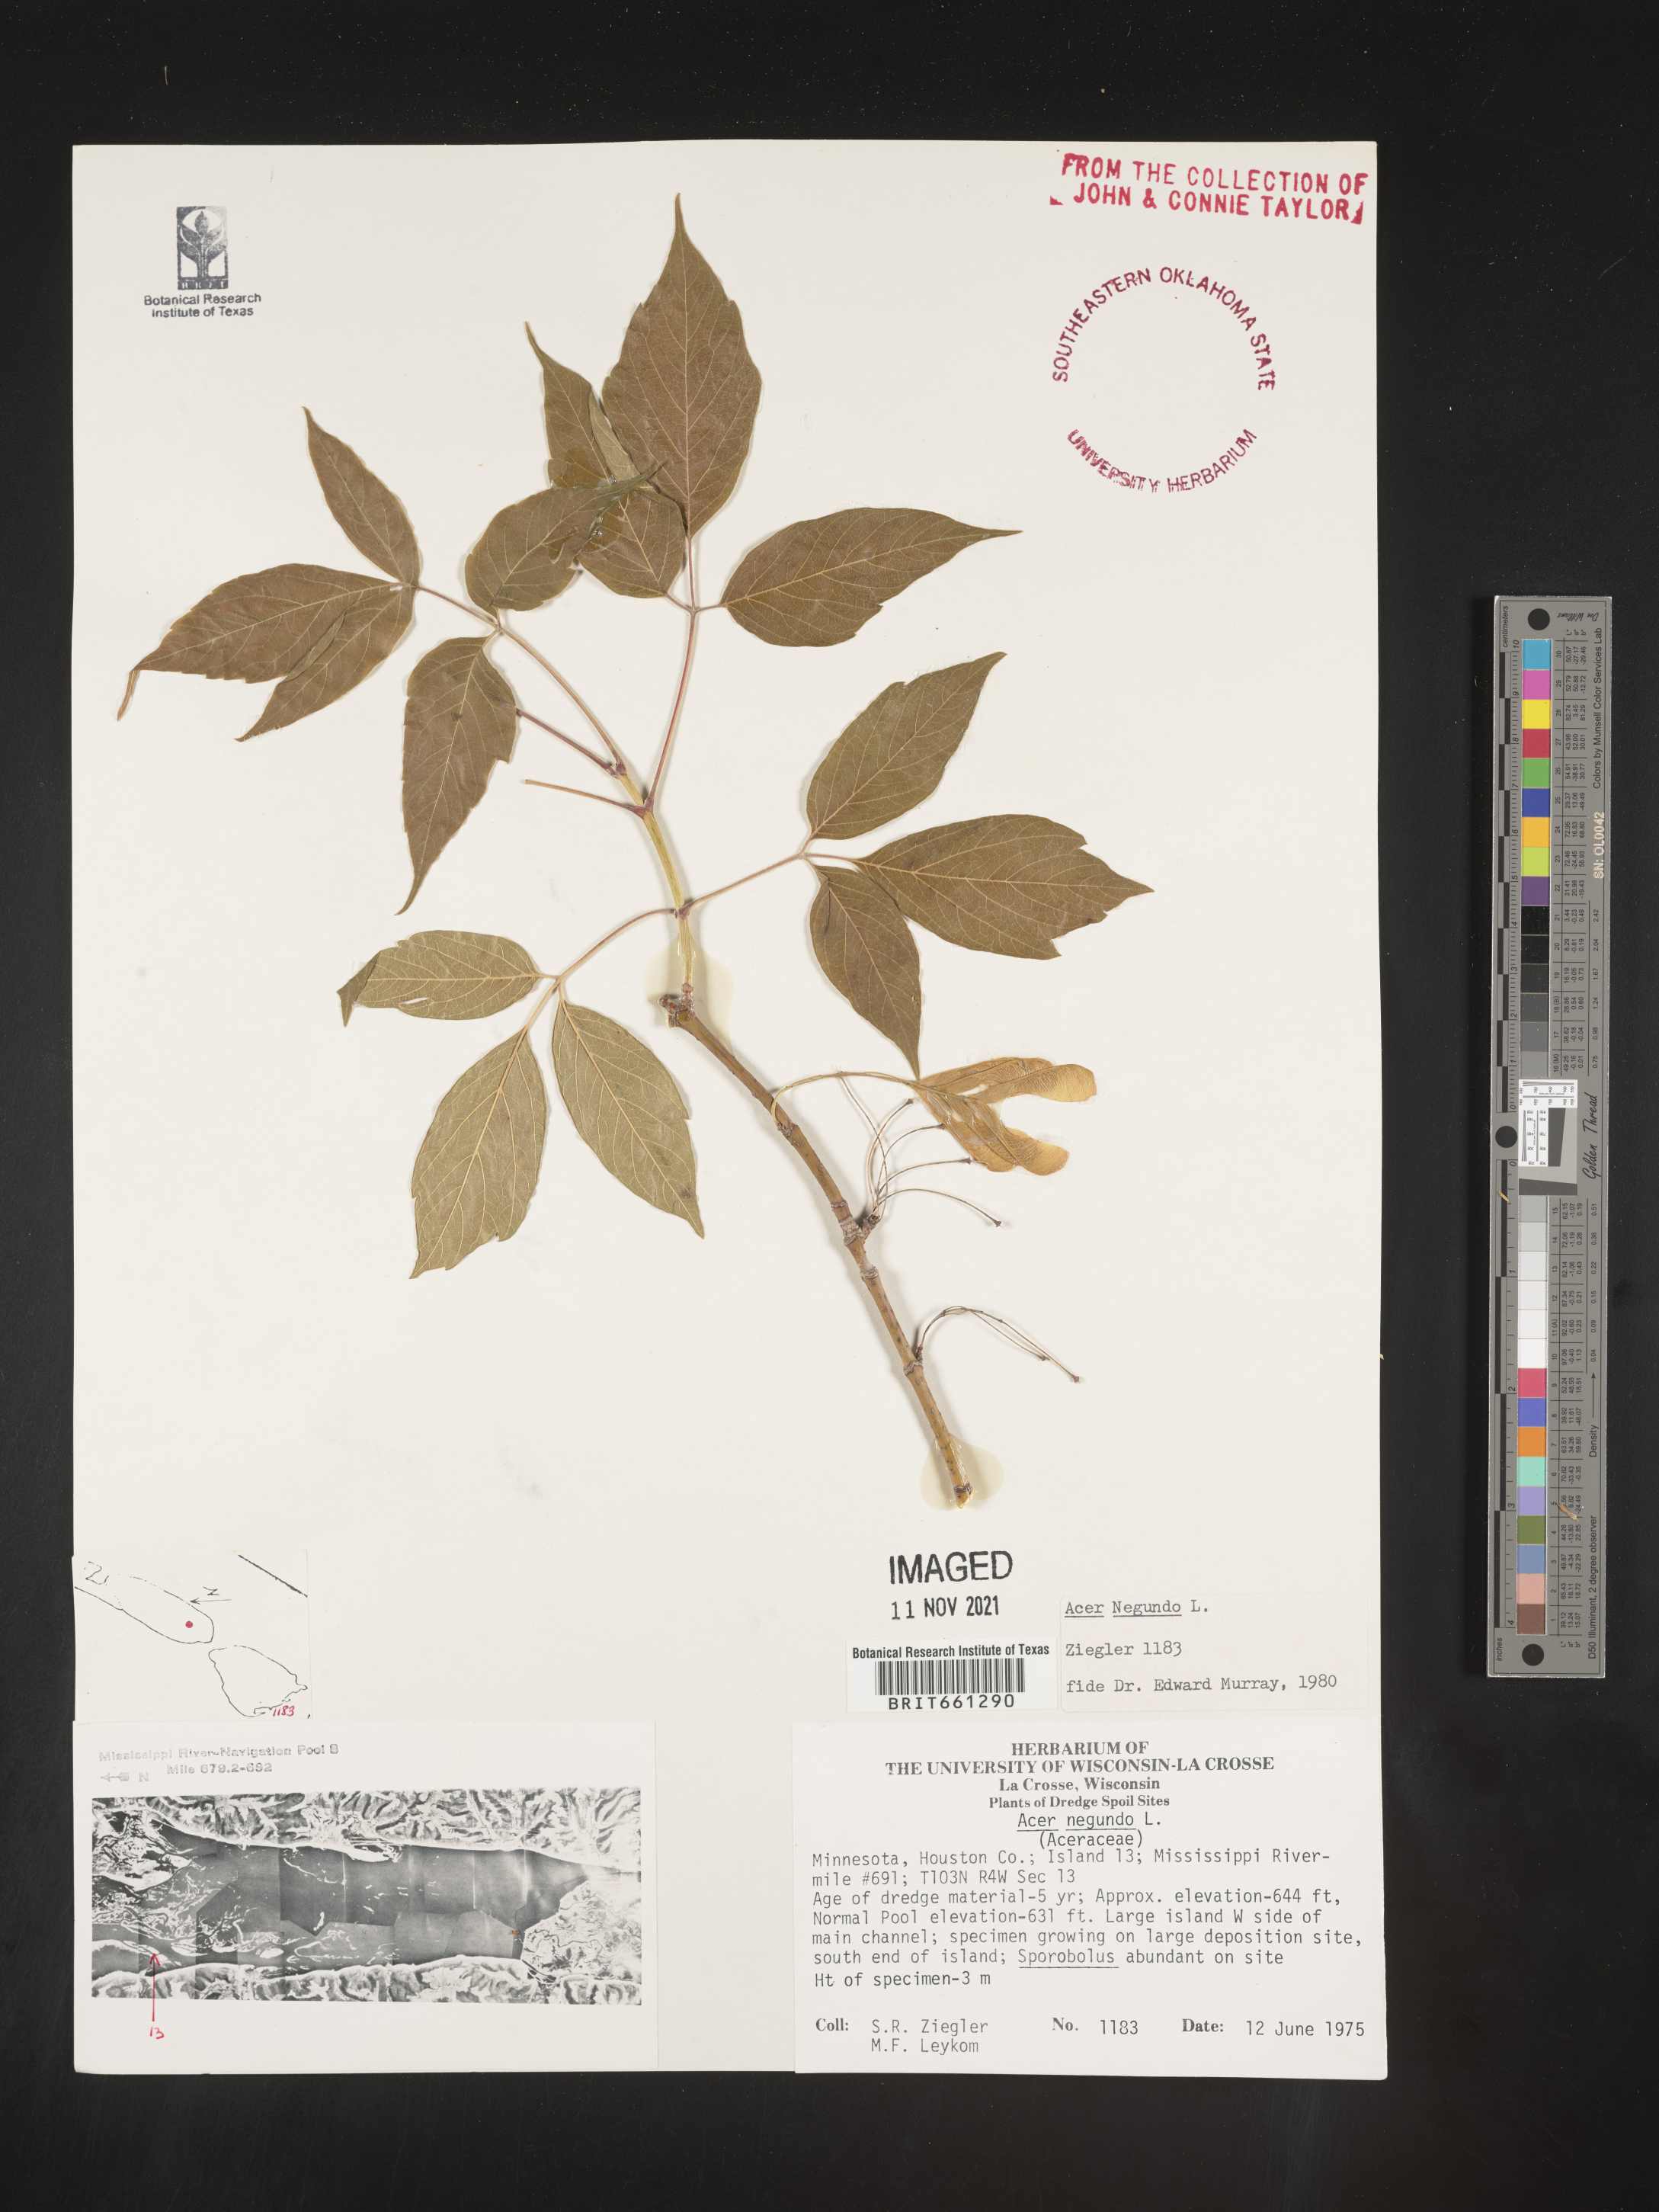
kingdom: Plantae
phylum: Tracheophyta
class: Magnoliopsida
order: Sapindales
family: Sapindaceae
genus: Acer
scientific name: Acer negundo
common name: Ashleaf maple
